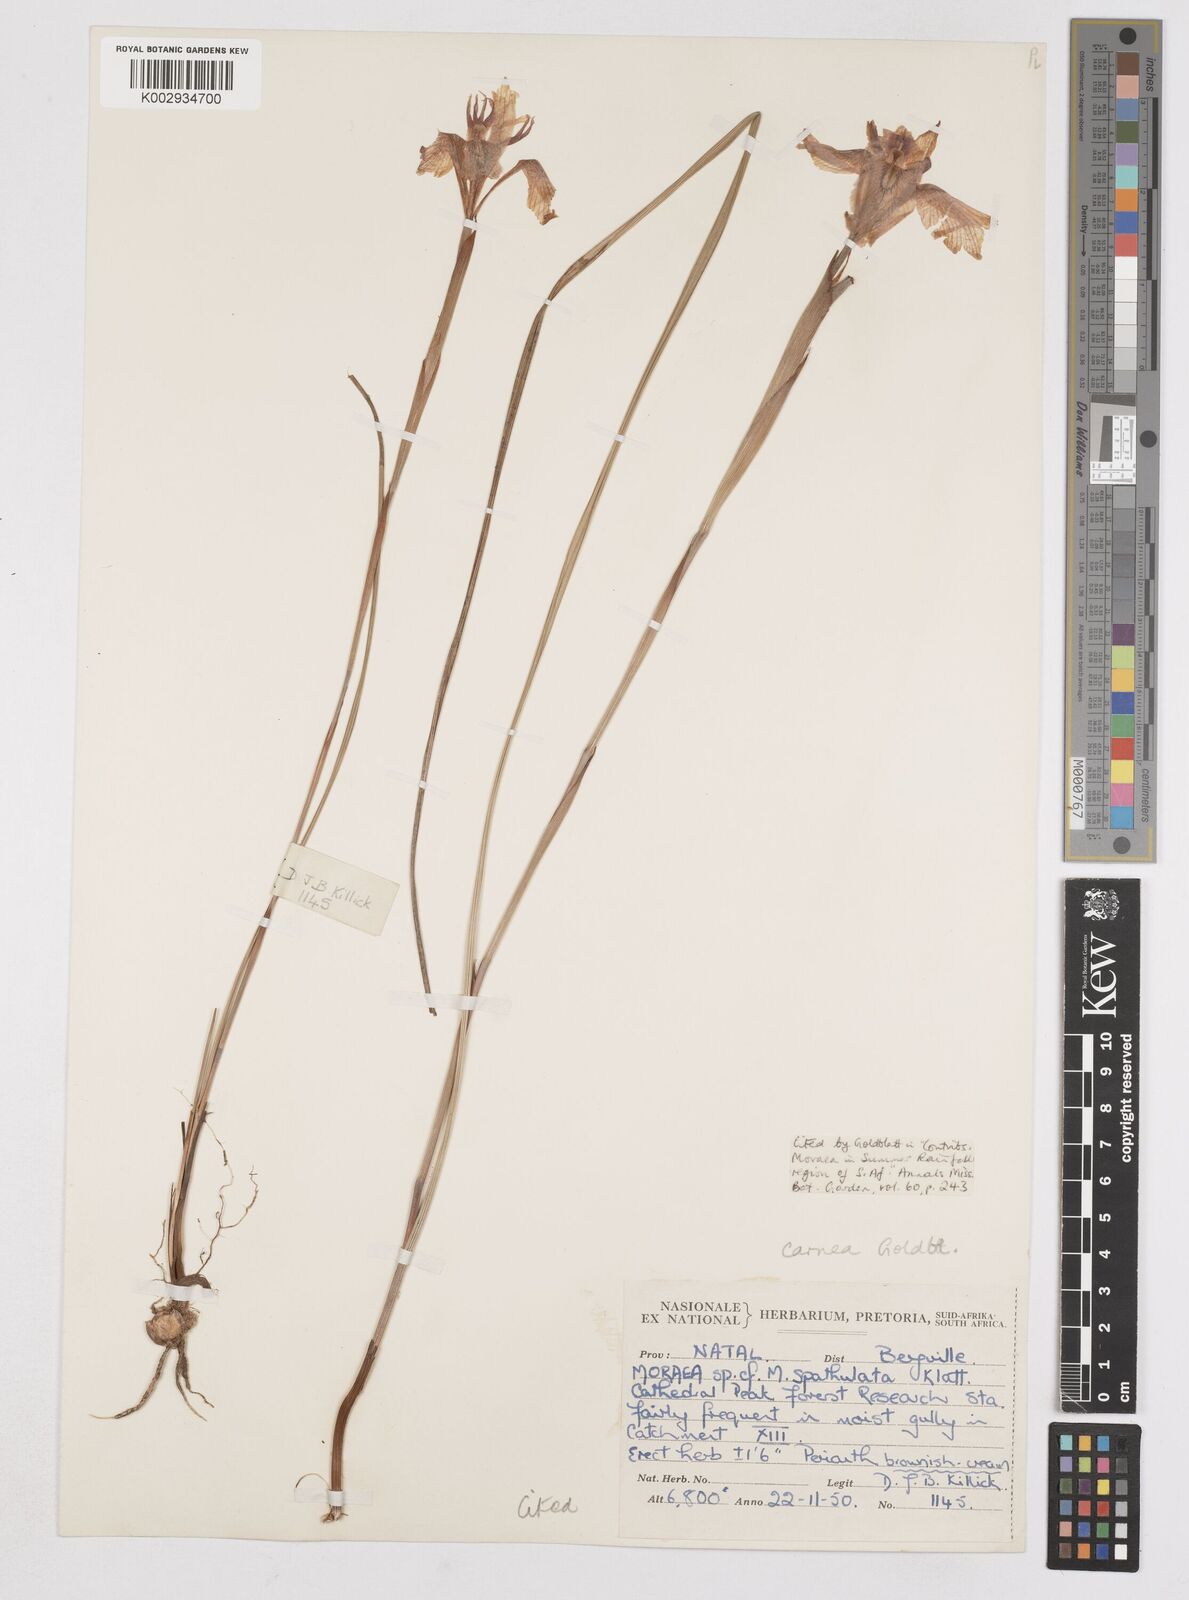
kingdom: Plantae
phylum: Tracheophyta
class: Liliopsida
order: Asparagales
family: Iridaceae
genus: Moraea
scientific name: Moraea carnea
